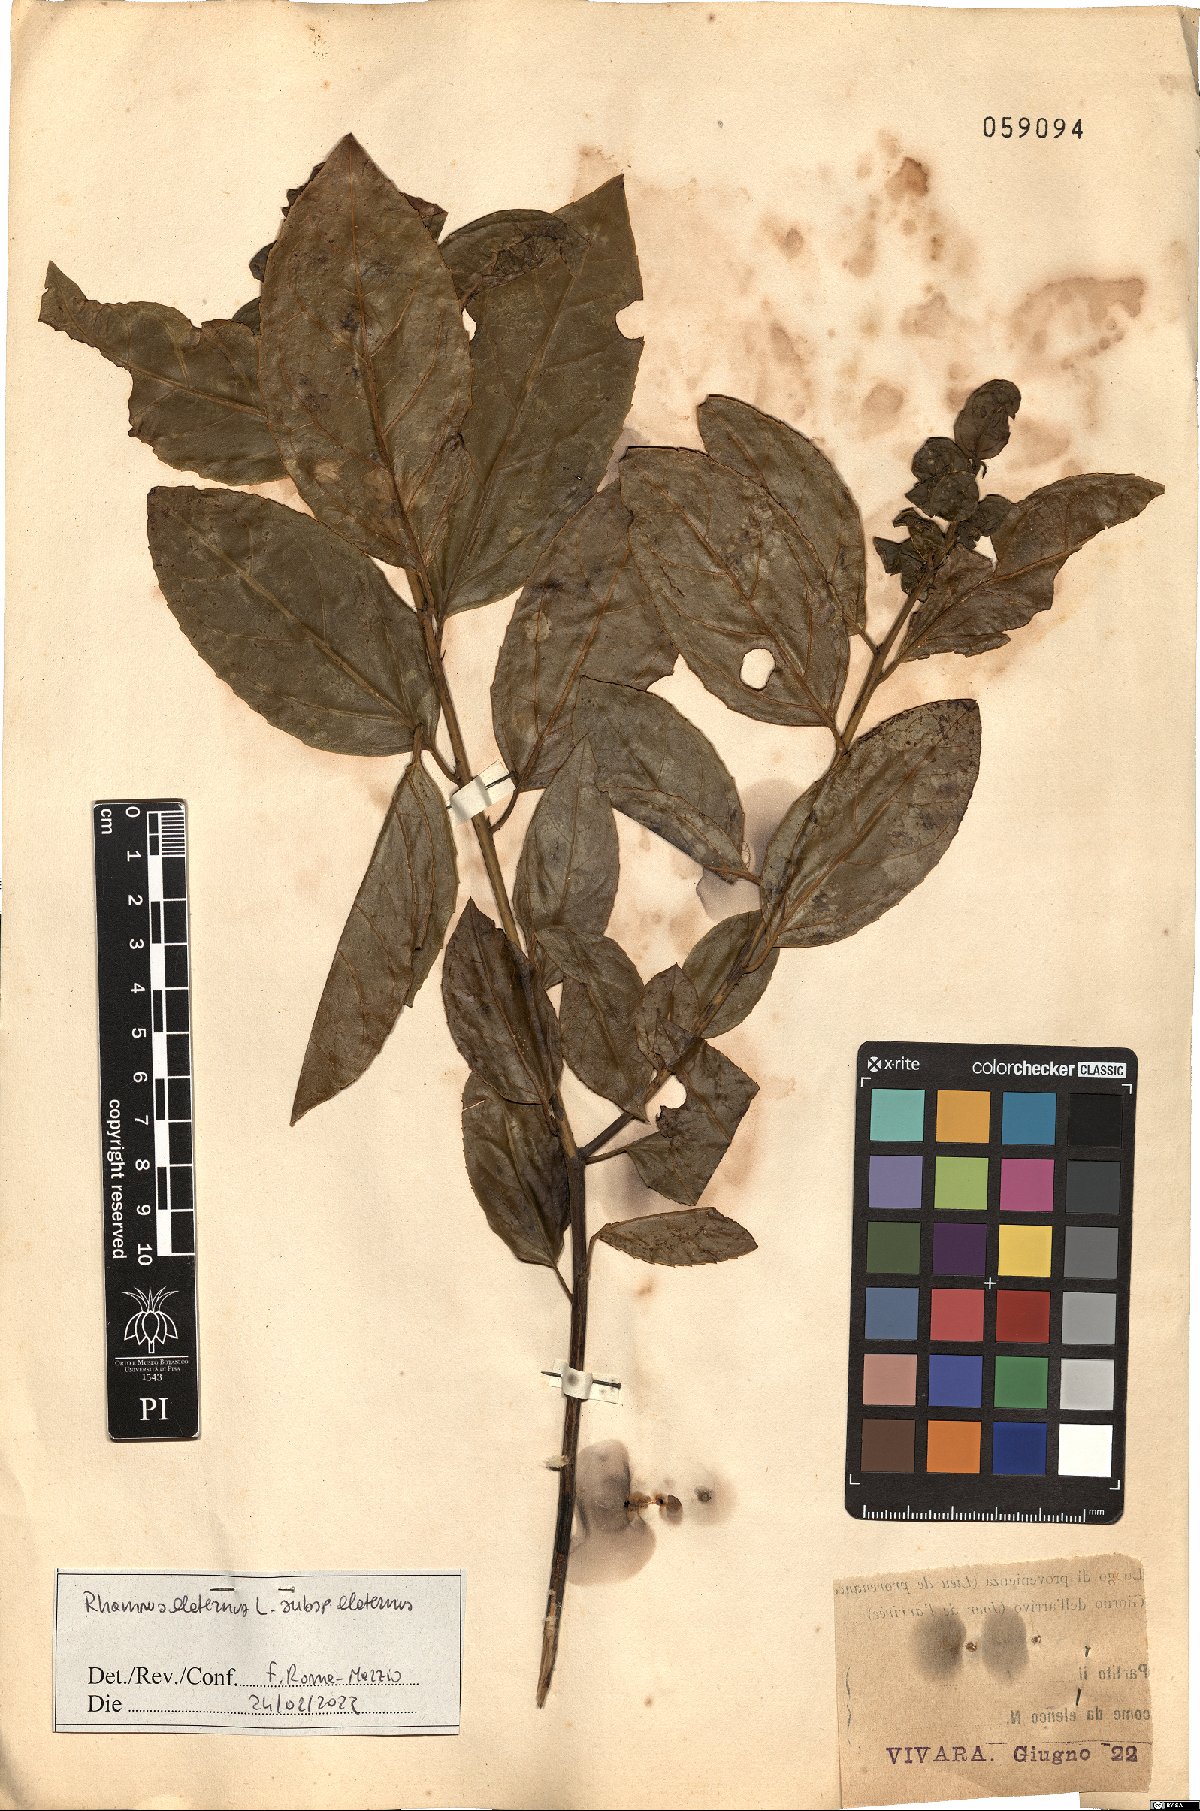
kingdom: Plantae
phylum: Tracheophyta
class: Magnoliopsida
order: Rosales
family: Rhamnaceae
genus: Rhamnus
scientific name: Rhamnus alaternus
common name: Mediterranean buckthorn
